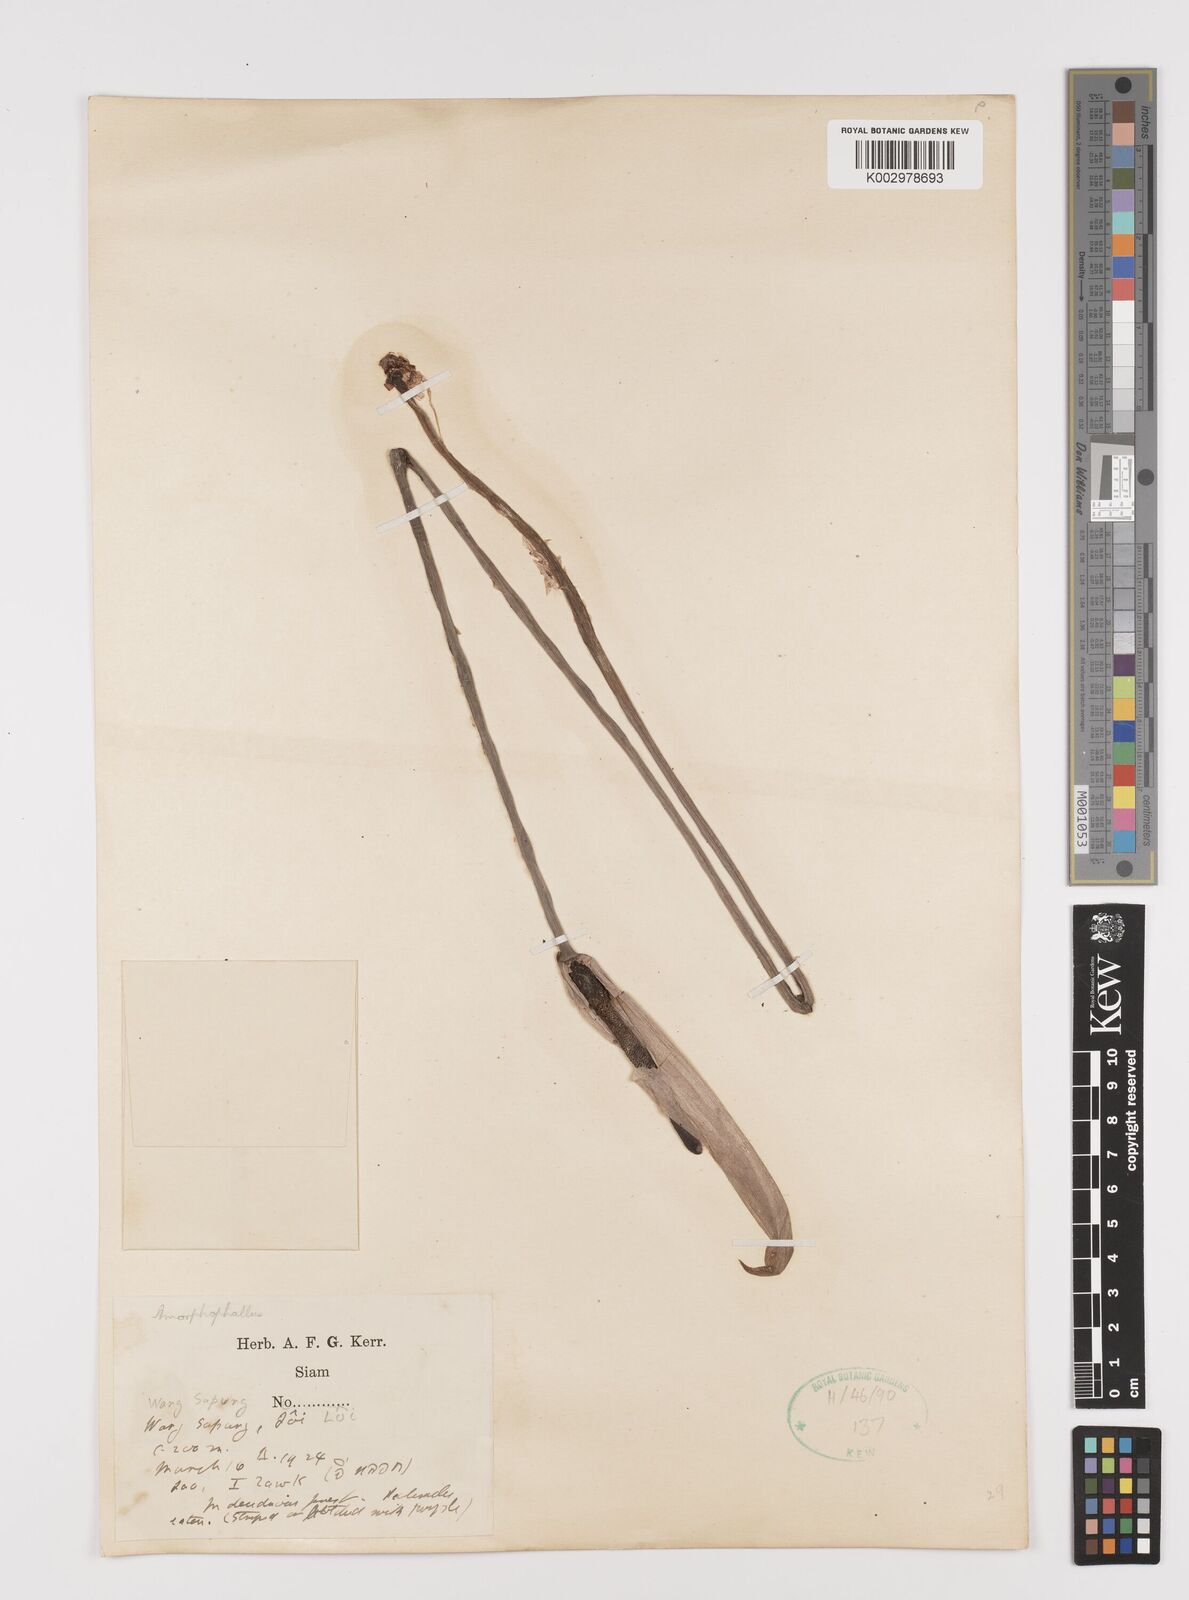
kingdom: Plantae
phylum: Tracheophyta
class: Liliopsida
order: Alismatales
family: Araceae
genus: Amorphophallus
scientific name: Amorphophallus longituberosus
